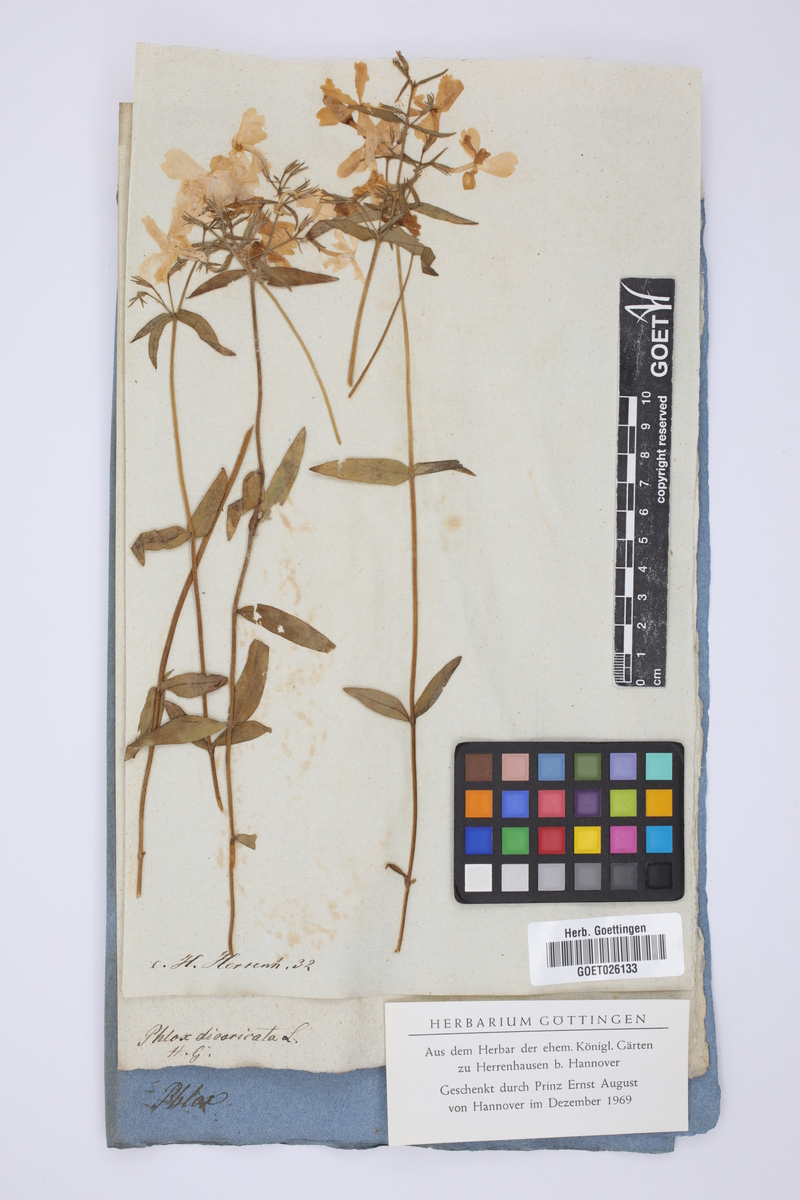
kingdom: Plantae
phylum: Tracheophyta
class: Magnoliopsida
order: Ericales
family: Polemoniaceae
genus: Phlox
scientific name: Phlox divaricata
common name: Blue phlox
